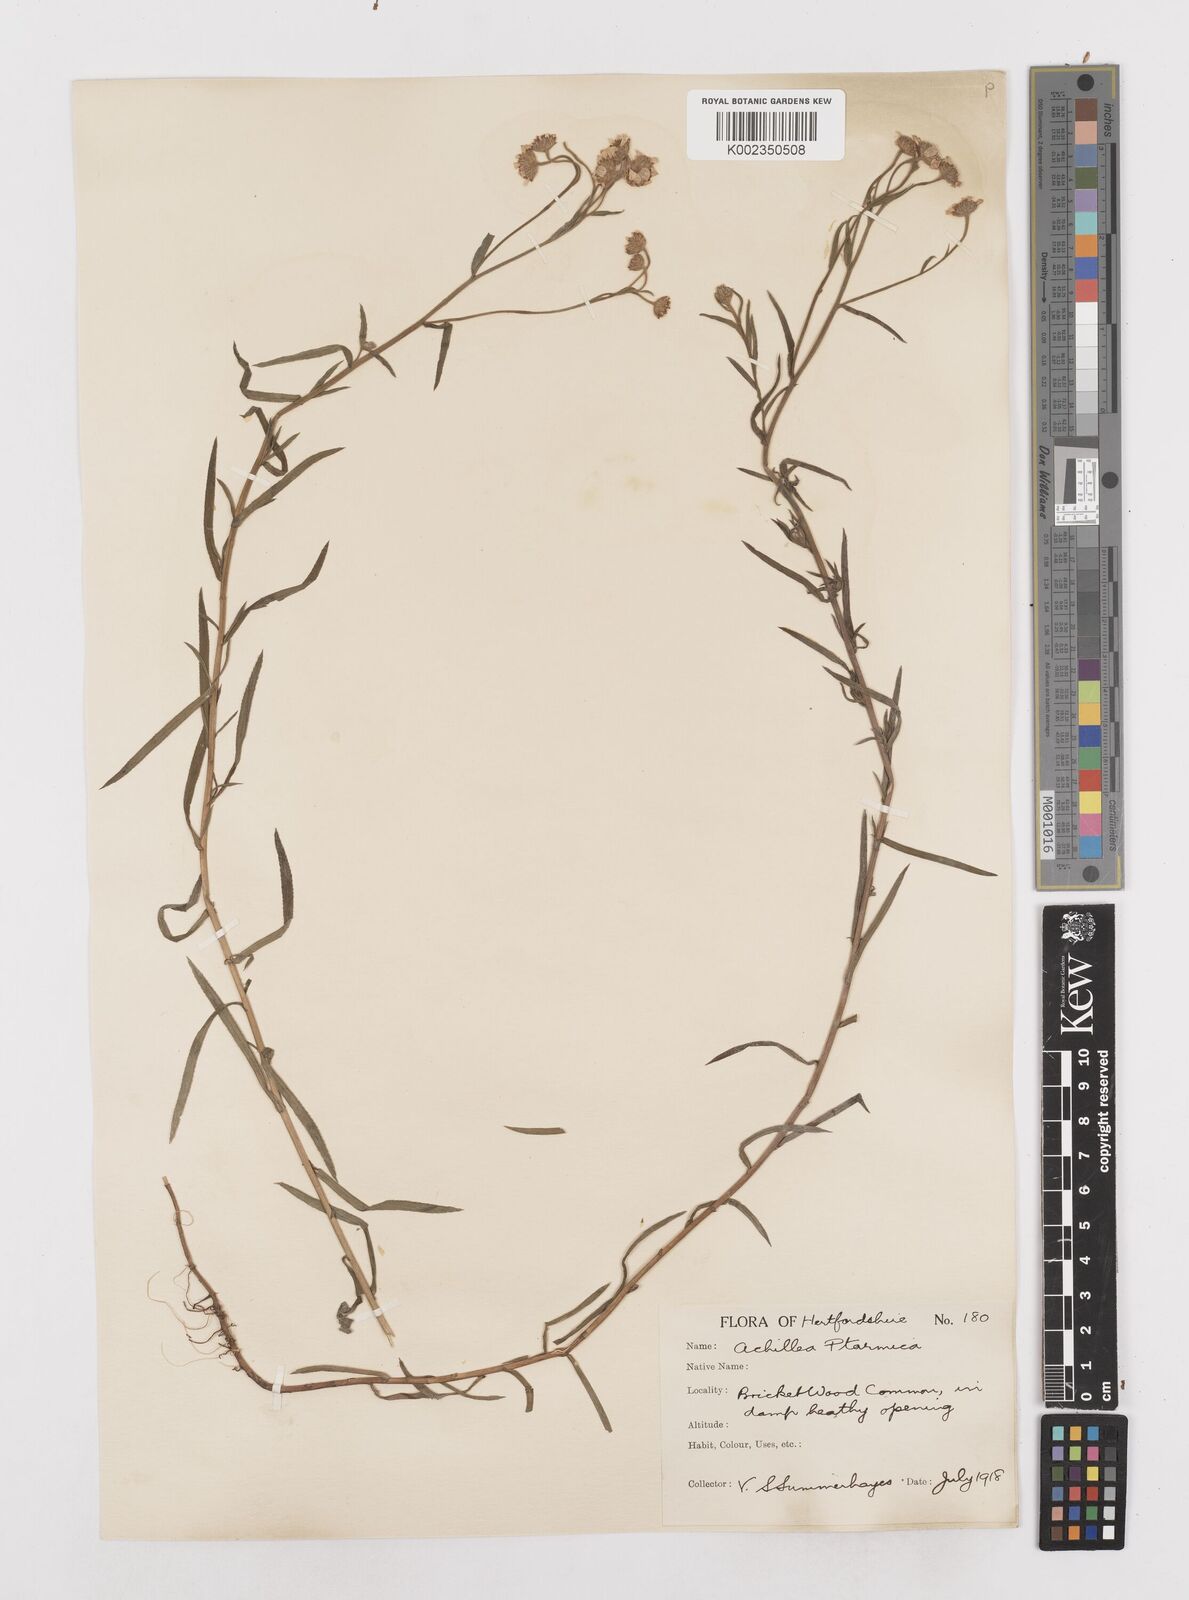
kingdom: Plantae
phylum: Tracheophyta
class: Magnoliopsida
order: Asterales
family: Asteraceae
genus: Achillea
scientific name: Achillea ptarmica
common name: Sneezeweed
